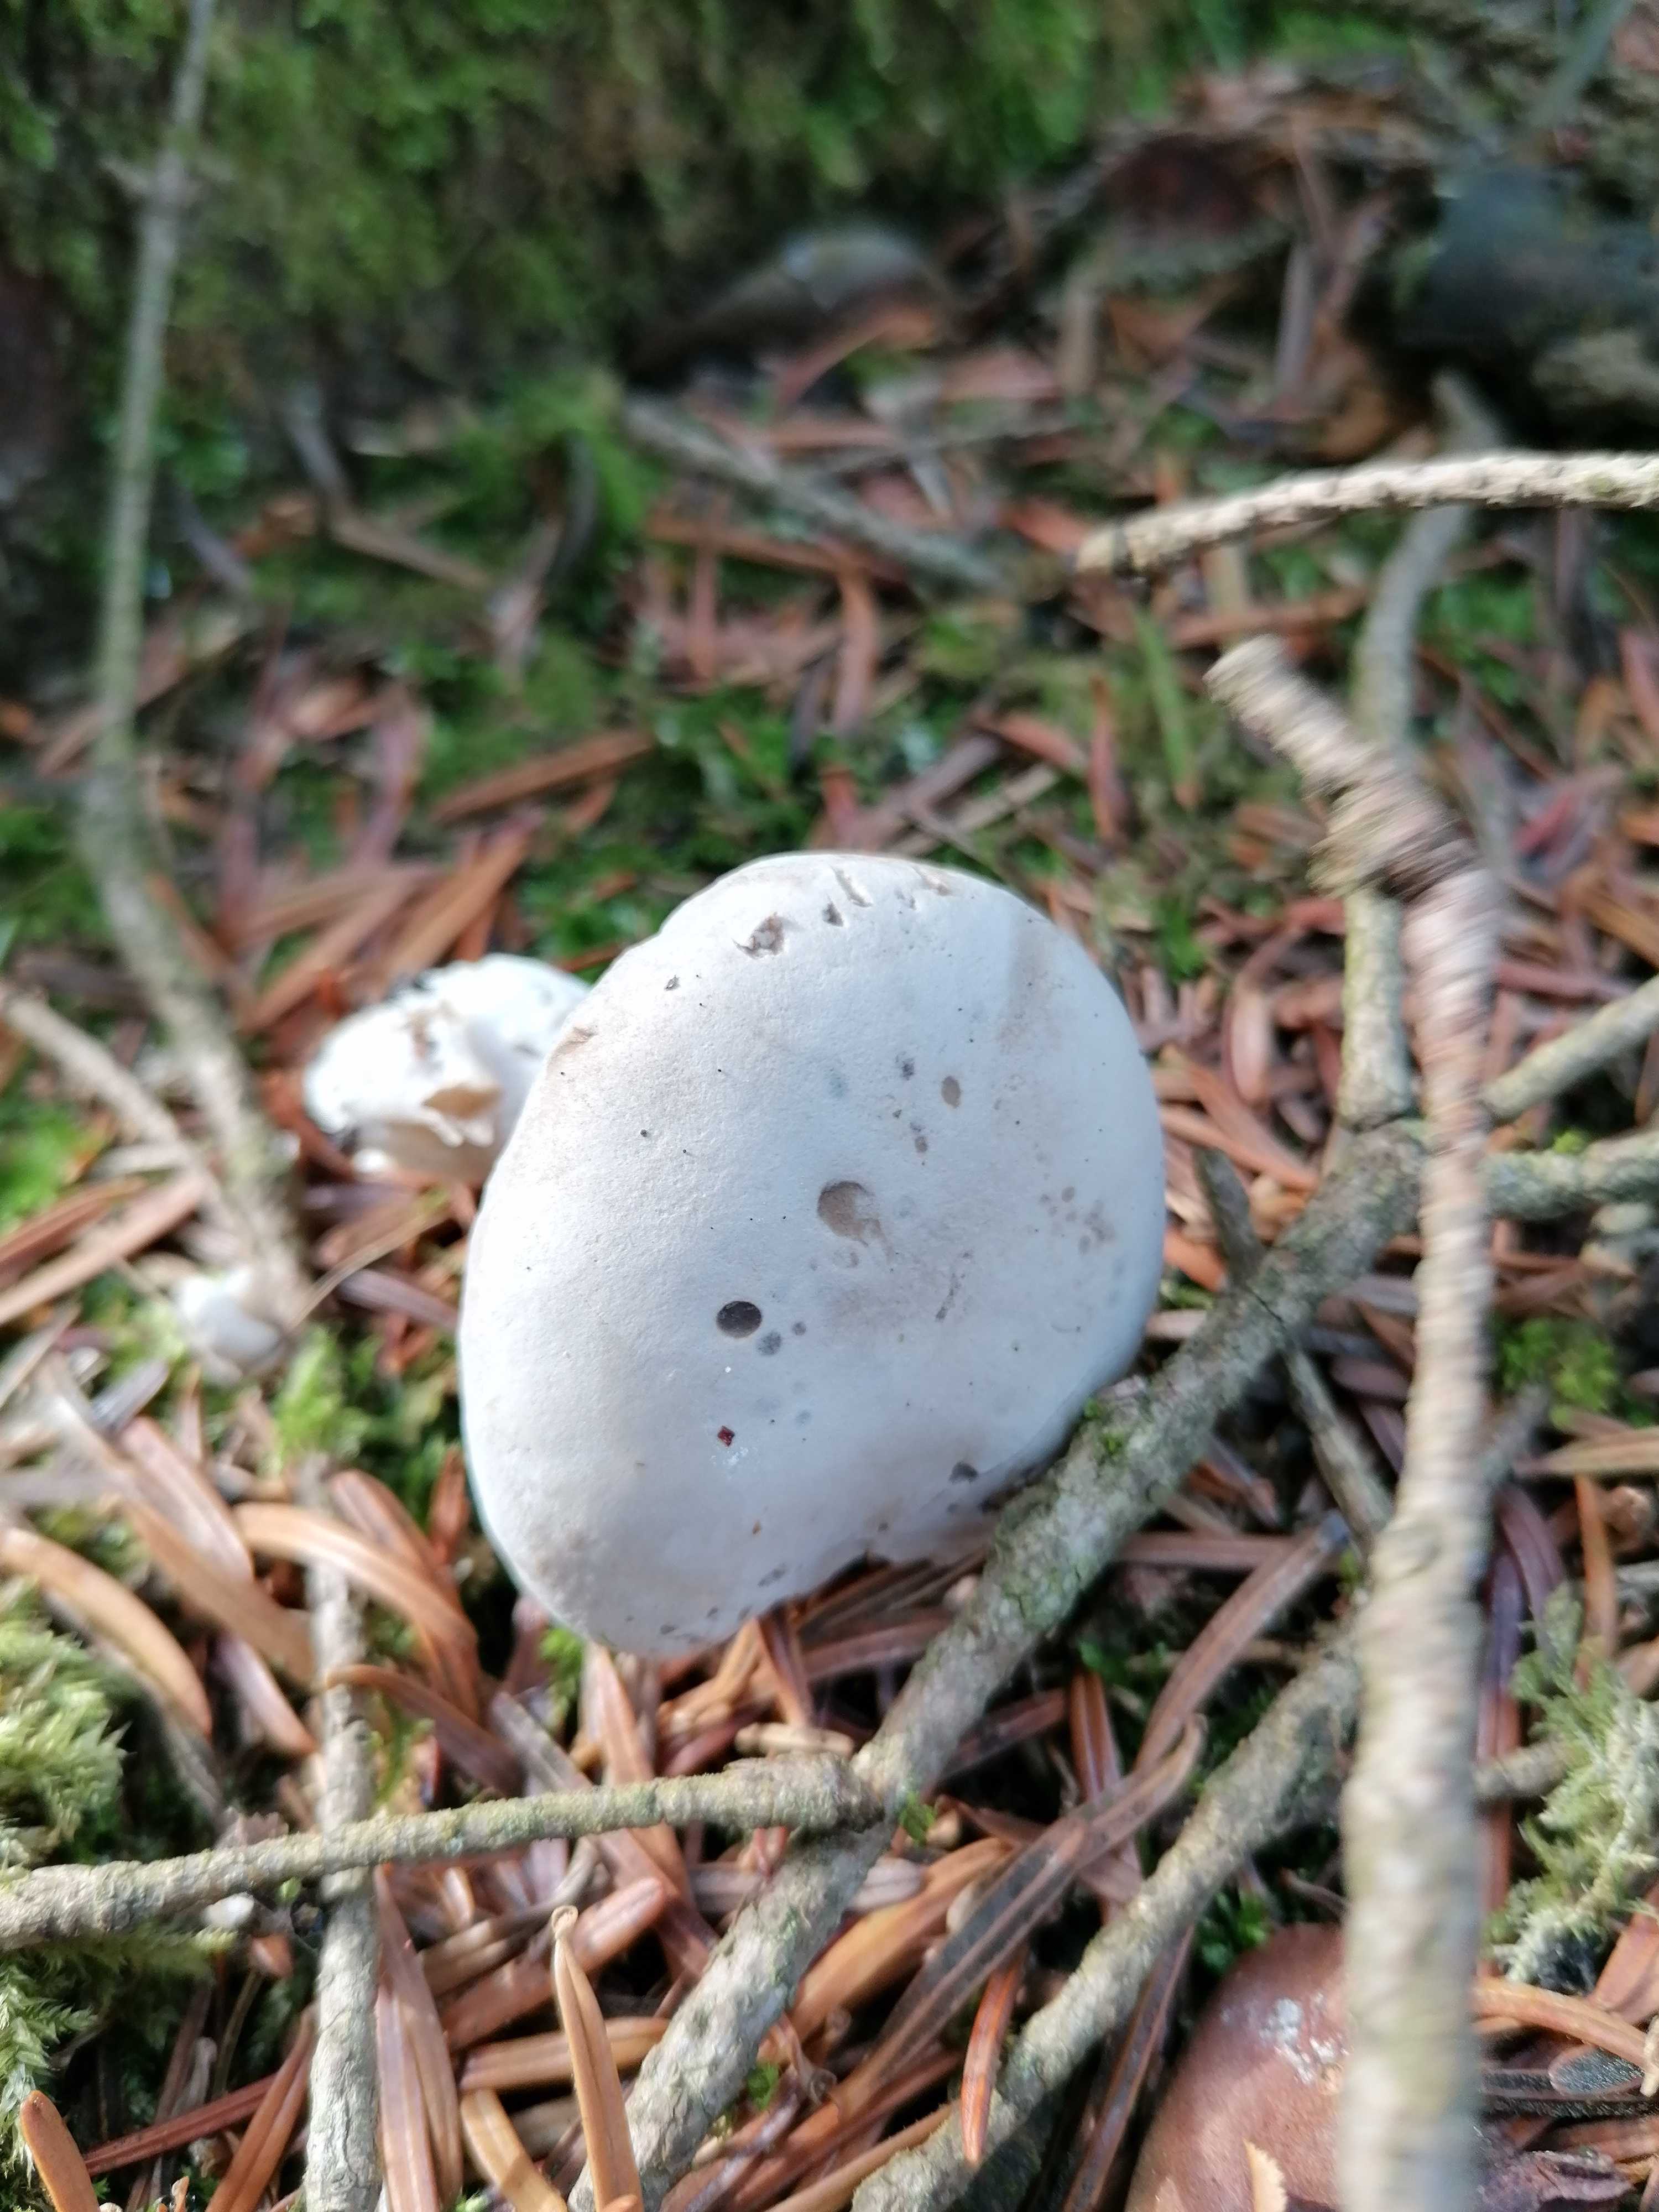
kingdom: Fungi
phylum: Basidiomycota
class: Agaricomycetes
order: Agaricales
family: Entolomataceae
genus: Clitopilus
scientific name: Clitopilus prunulus
